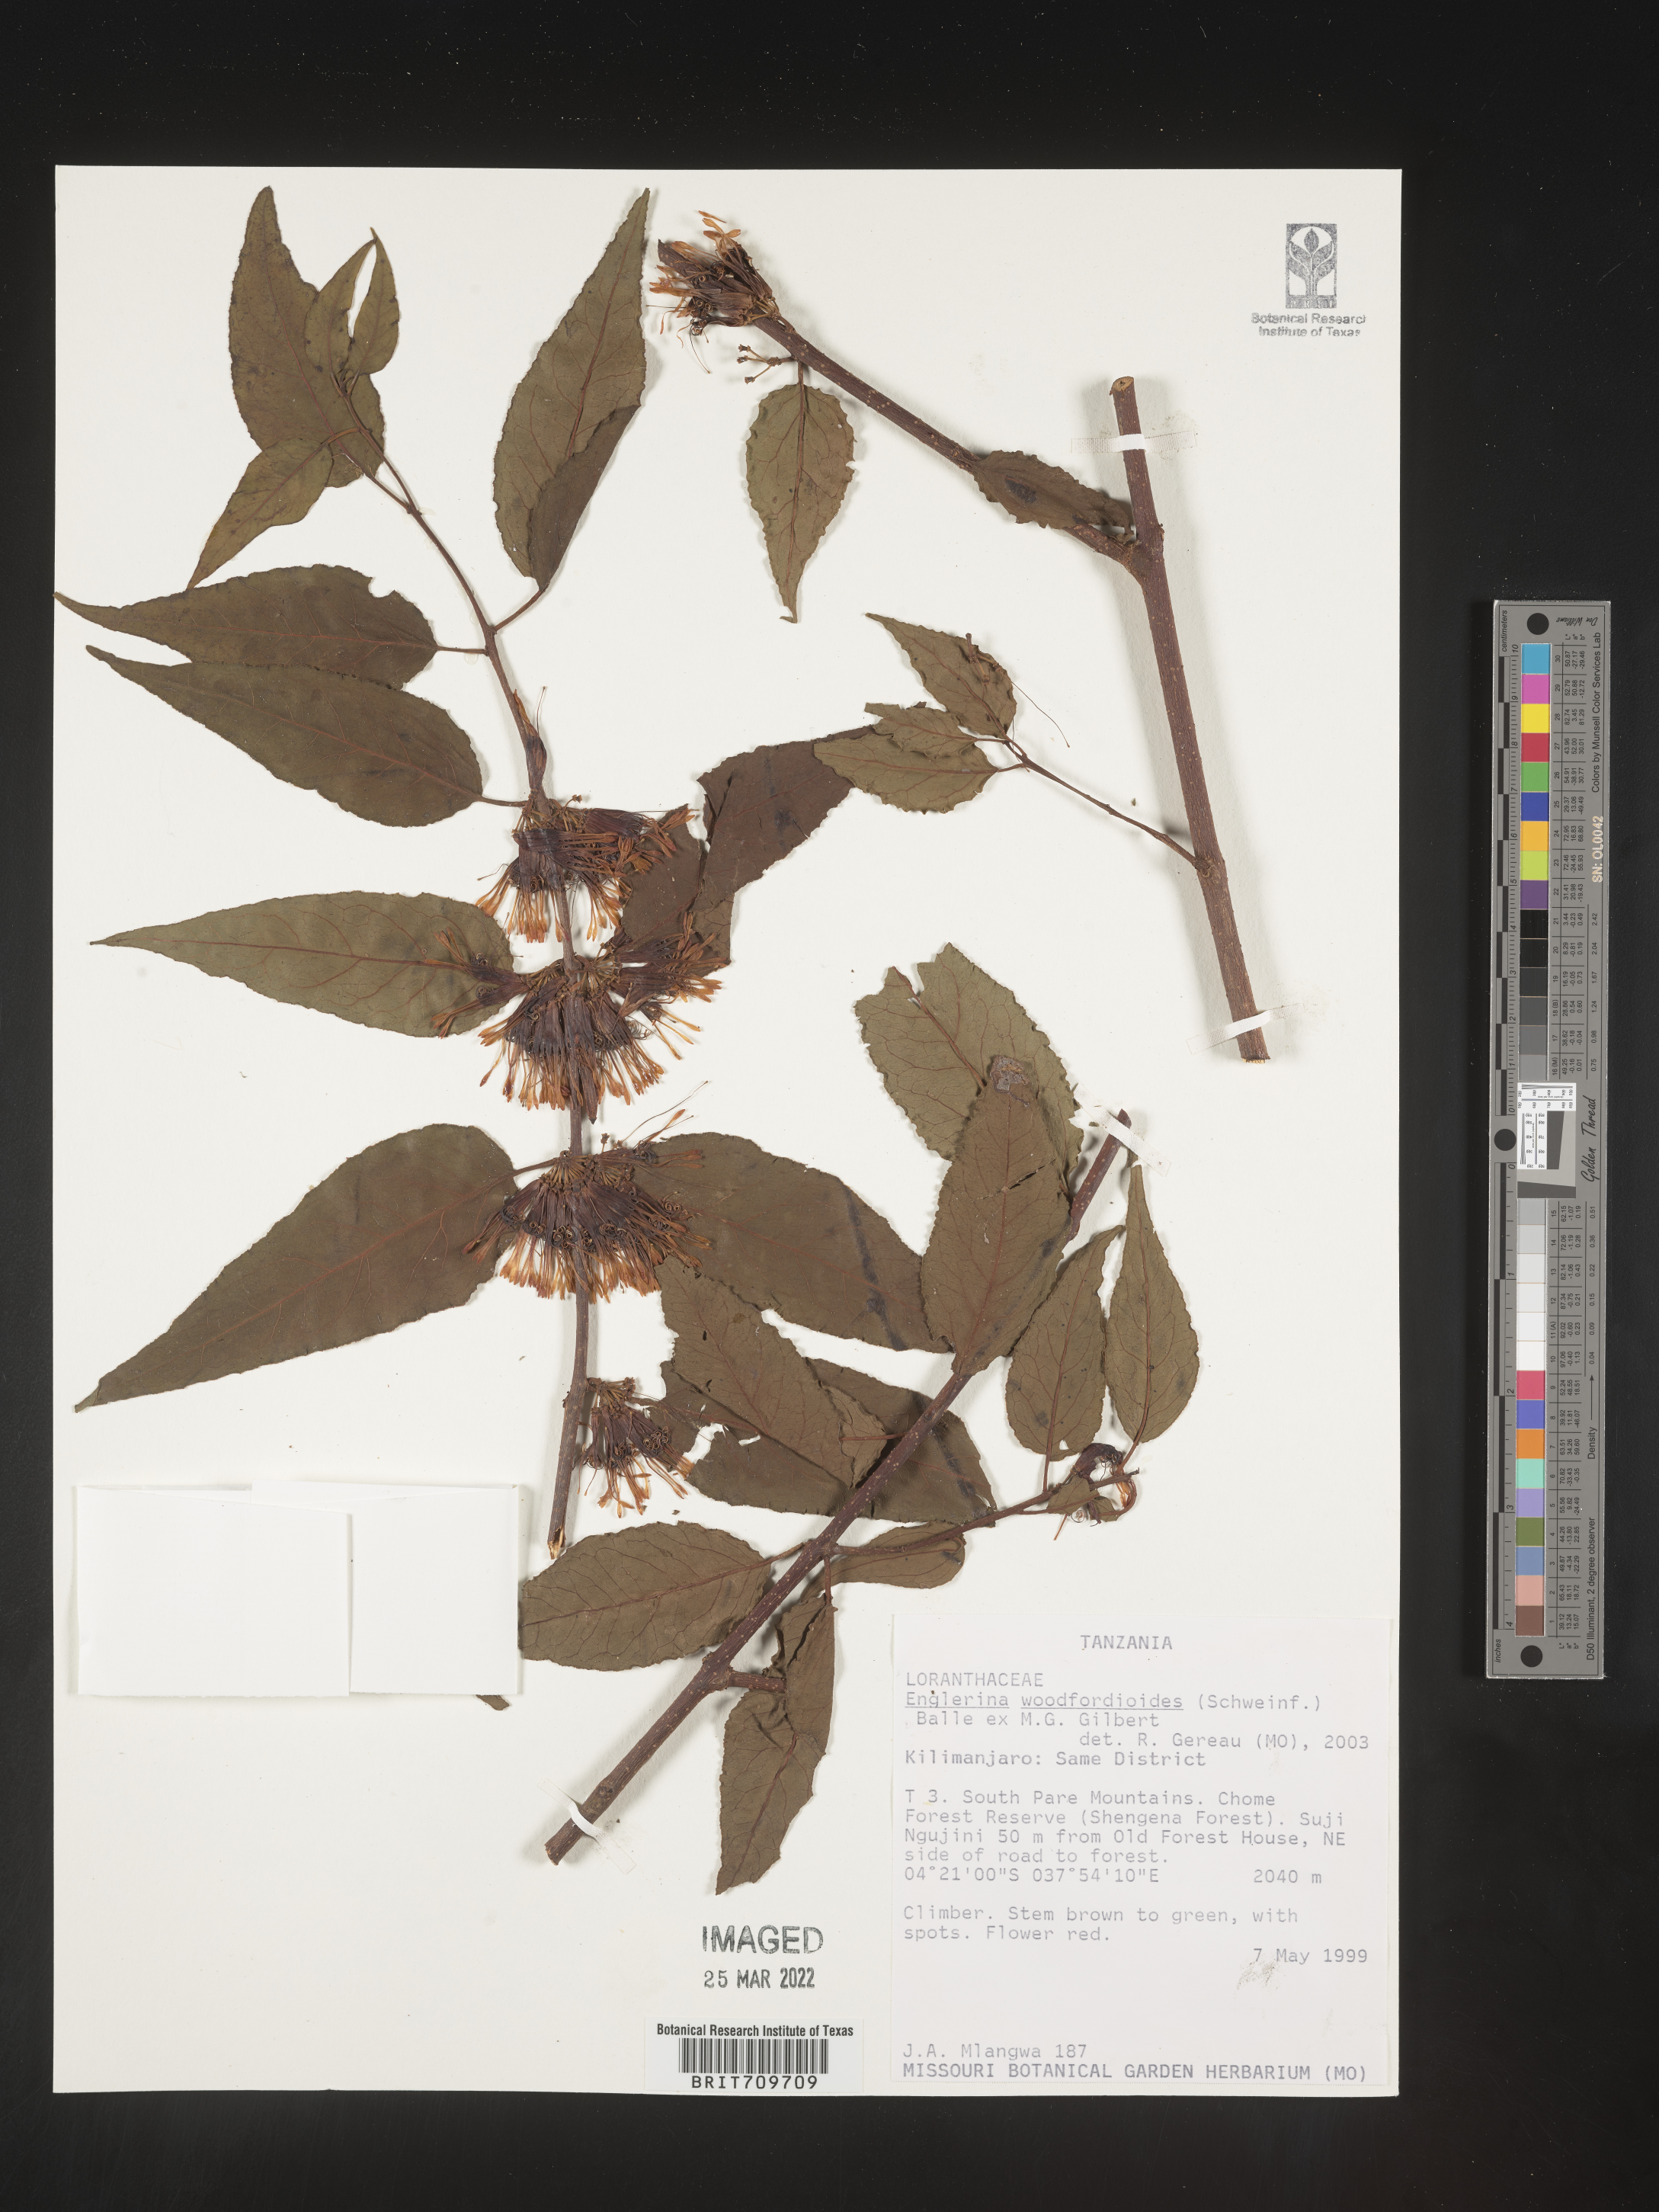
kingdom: Plantae
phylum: Tracheophyta
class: Magnoliopsida
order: Santalales
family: Loranthaceae
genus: Englerina
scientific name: Englerina
